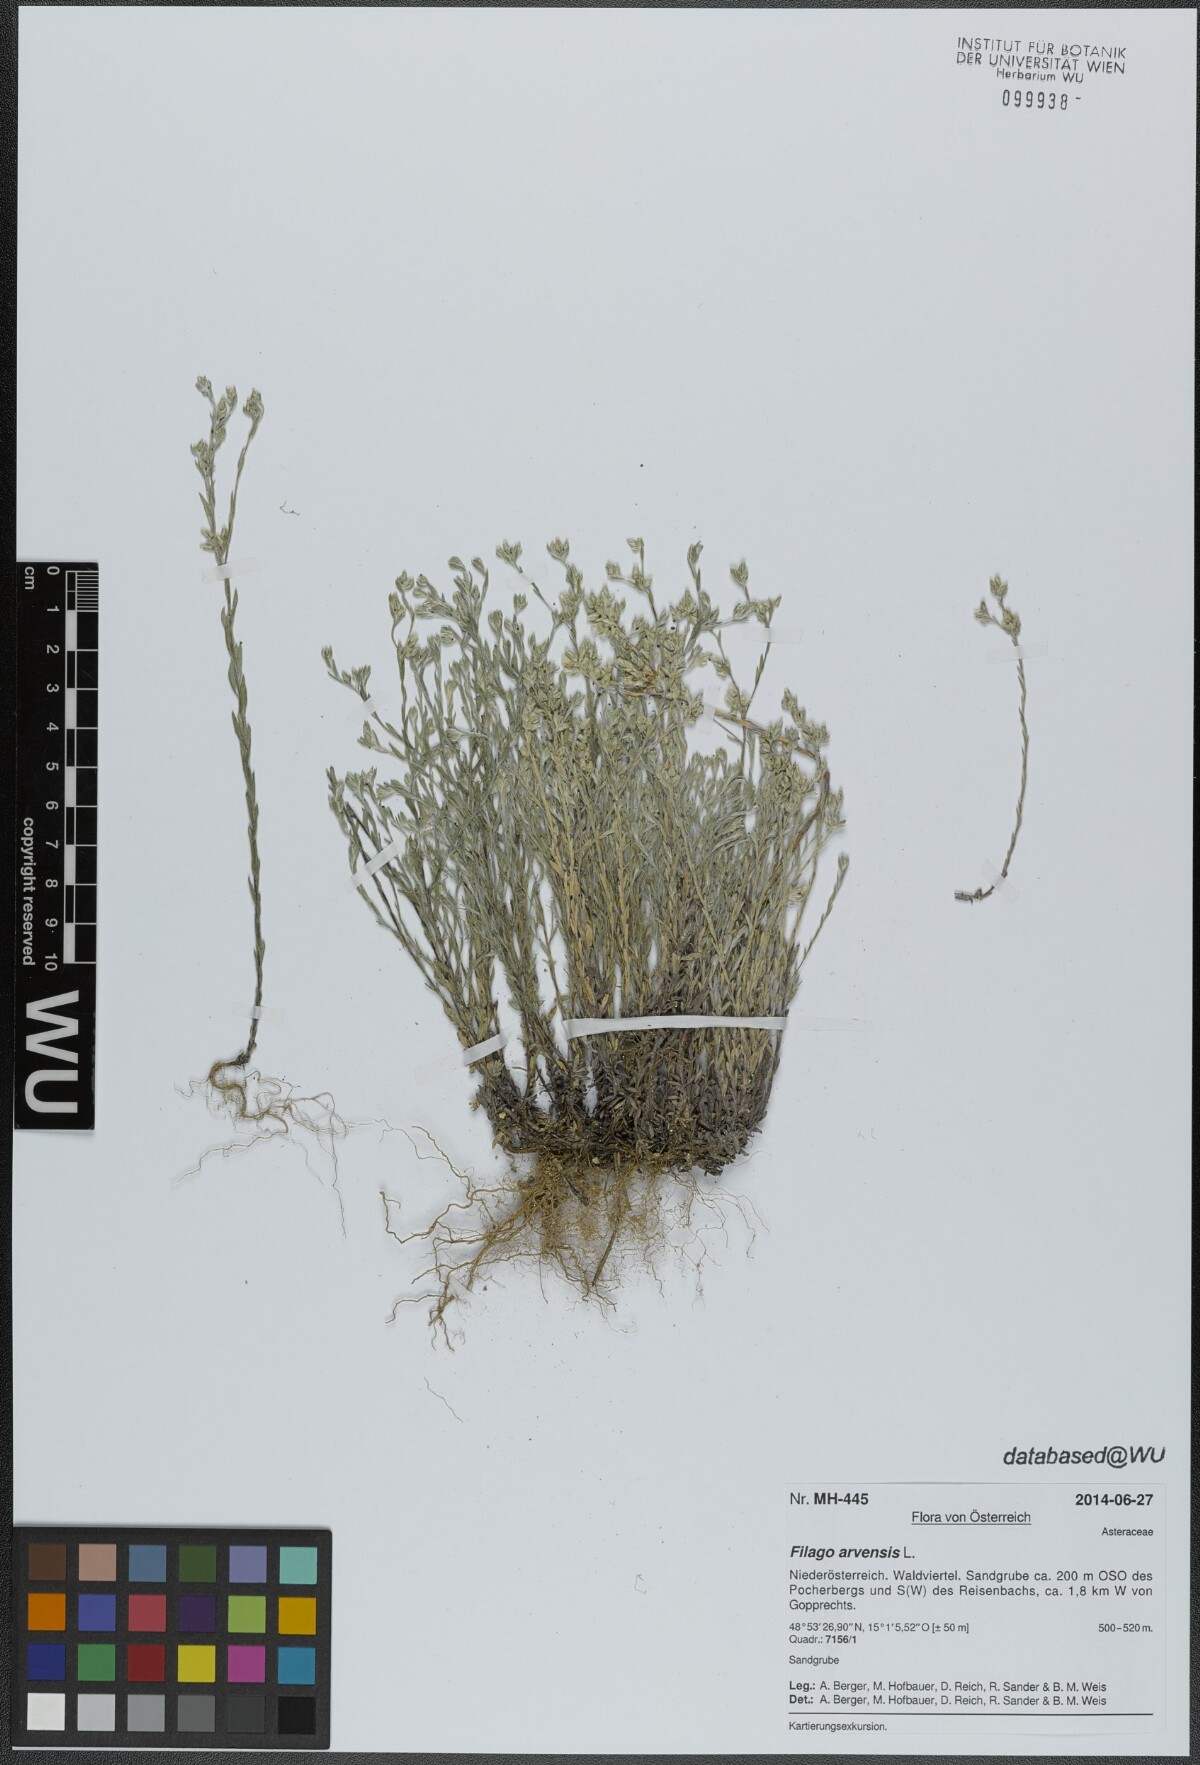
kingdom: Plantae
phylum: Tracheophyta
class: Magnoliopsida
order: Asterales
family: Asteraceae
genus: Filago
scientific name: Filago arvensis
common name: Field cudweed
